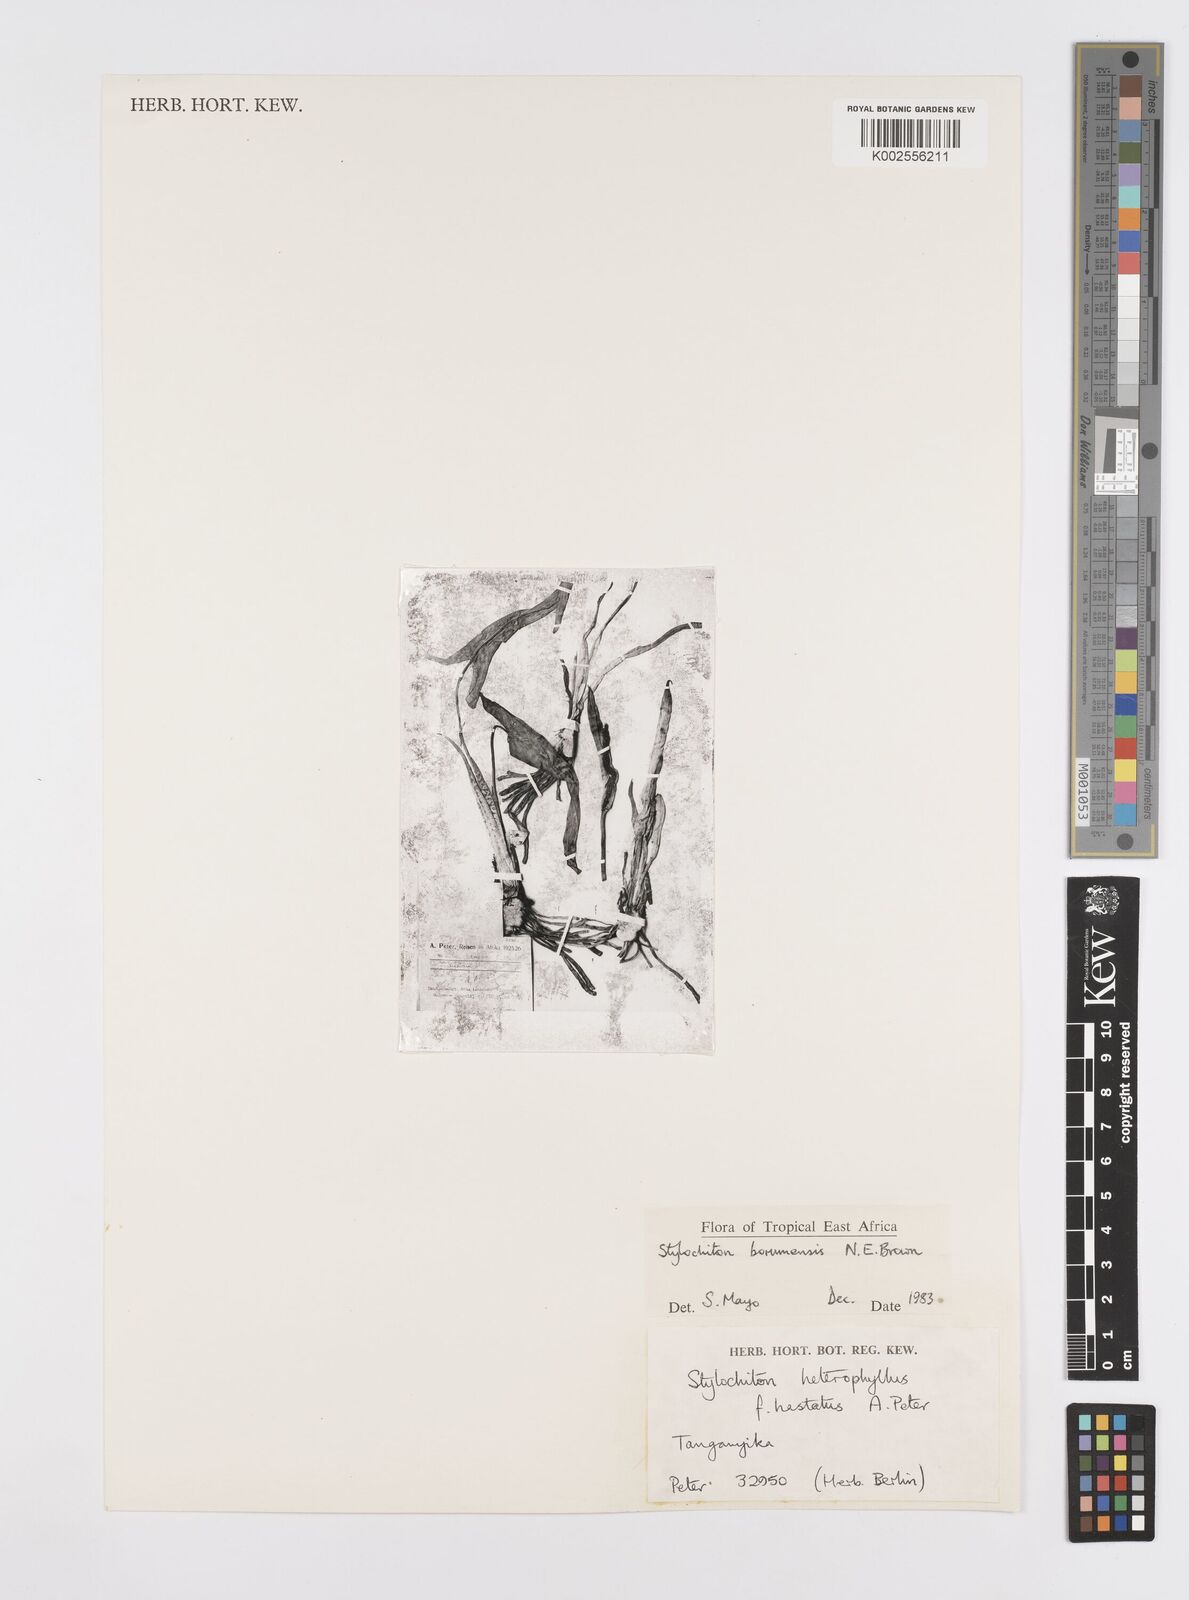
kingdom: Plantae
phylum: Tracheophyta
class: Liliopsida
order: Alismatales
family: Araceae
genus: Stylochaeton
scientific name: Stylochaeton borumense
